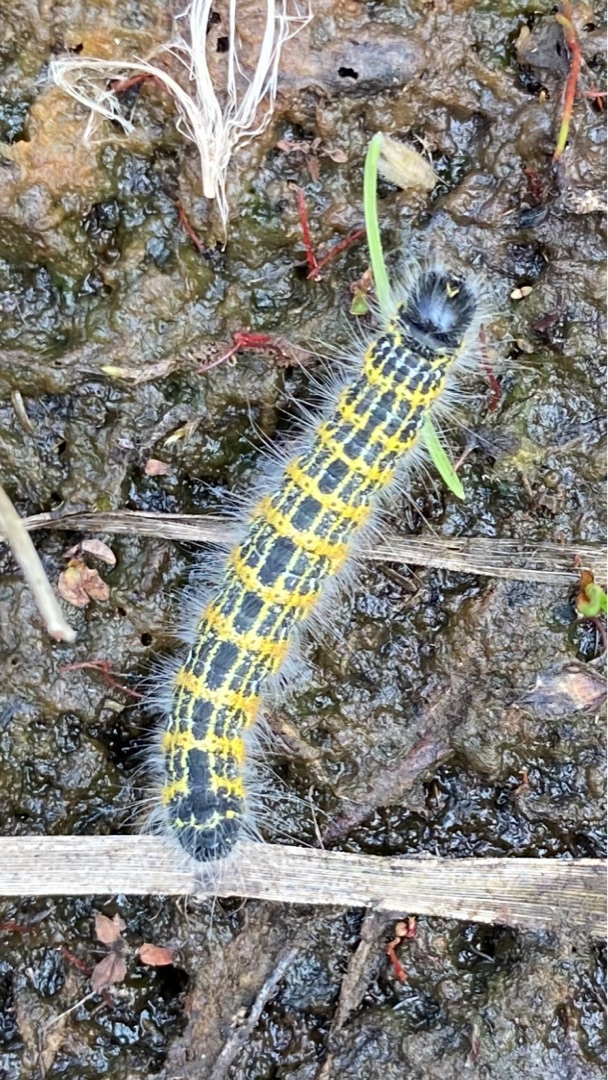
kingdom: Animalia
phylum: Arthropoda
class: Insecta
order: Lepidoptera
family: Notodontidae
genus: Phalera
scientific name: Phalera bucephala
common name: Måneplet
